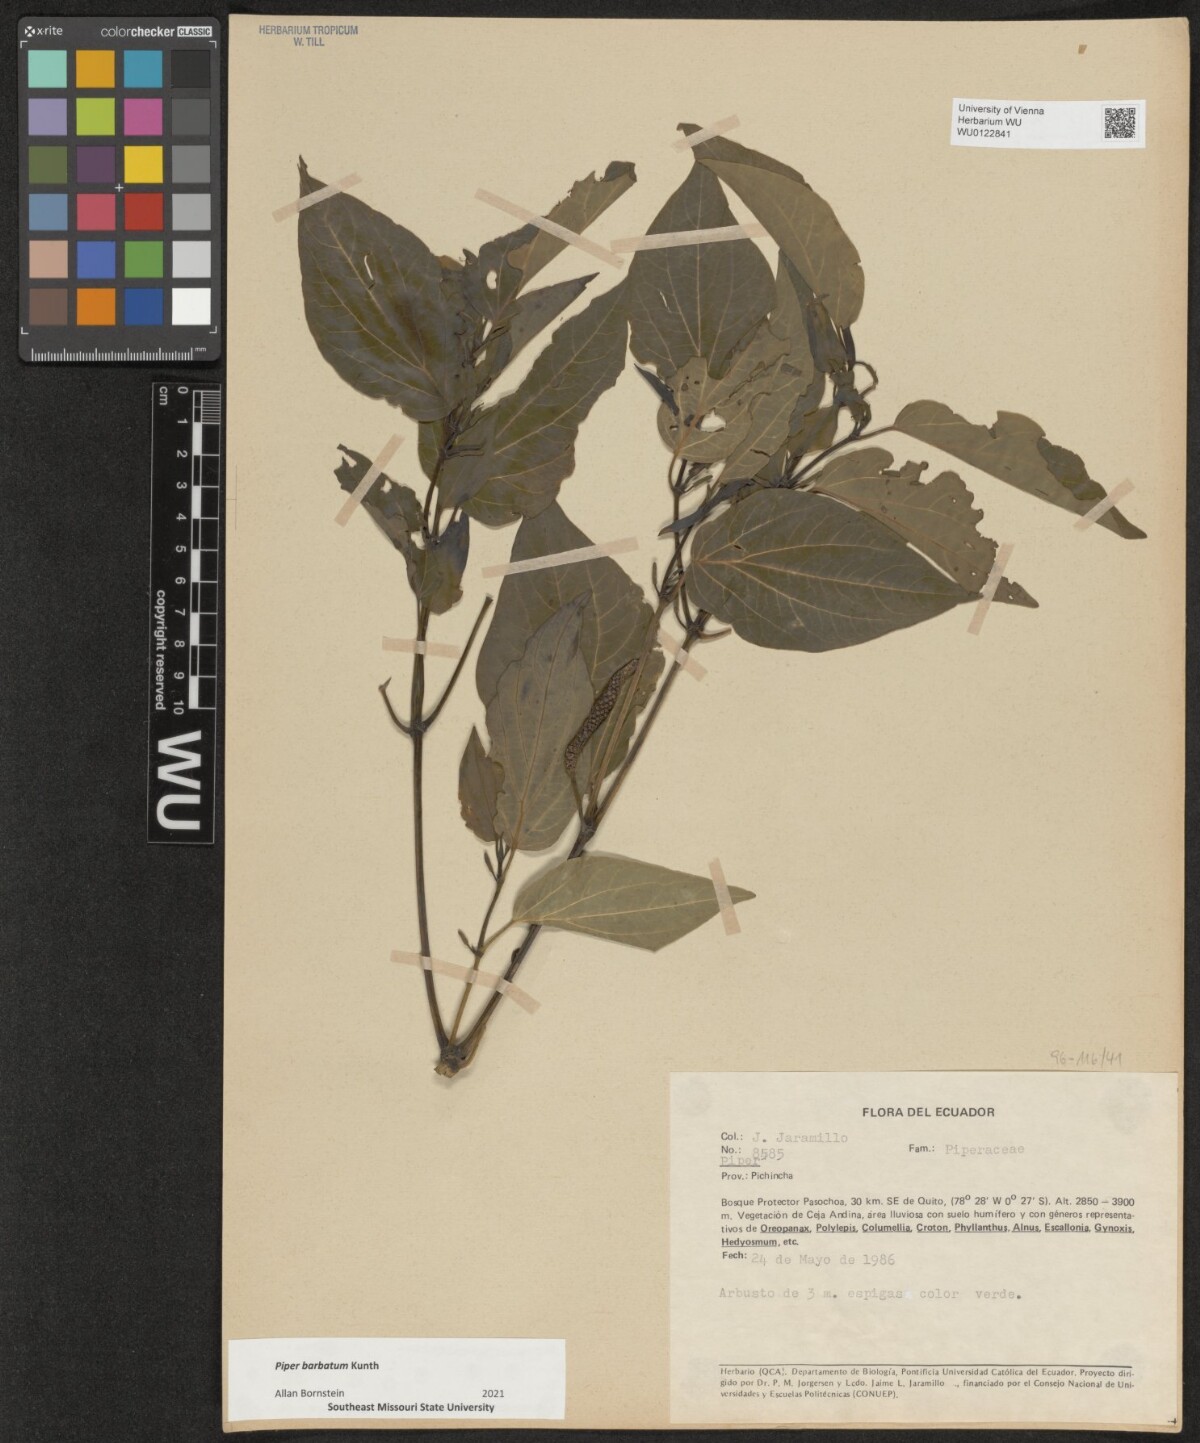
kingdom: Plantae
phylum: Tracheophyta
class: Magnoliopsida
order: Piperales
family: Piperaceae
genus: Piper
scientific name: Piper barbatum
